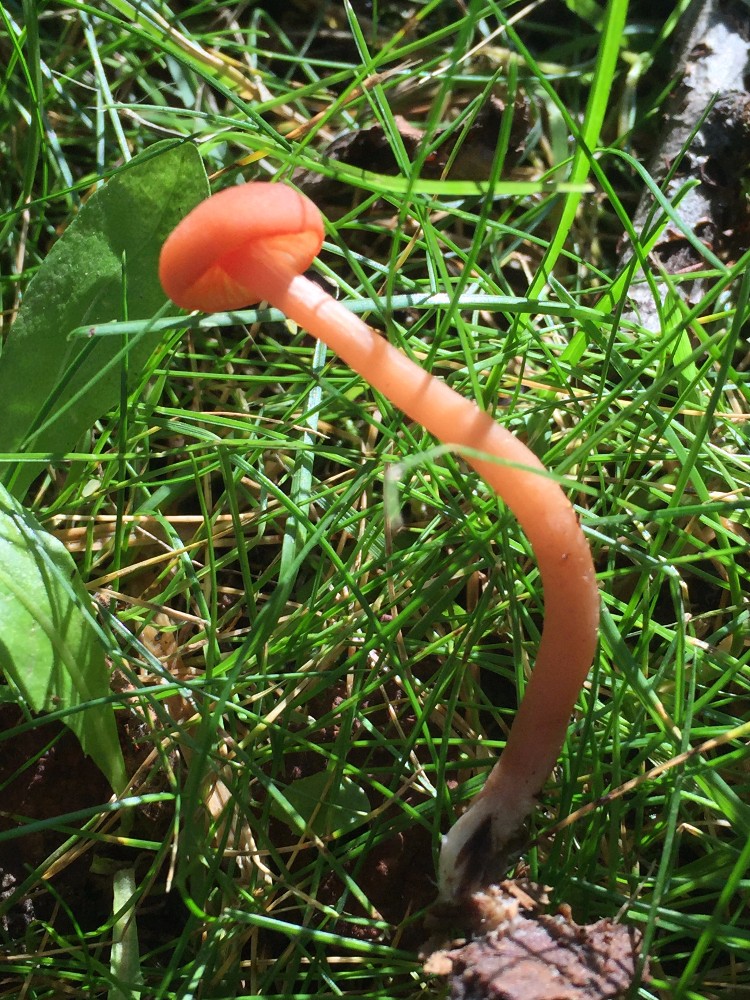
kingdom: Fungi
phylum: Basidiomycota
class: Agaricomycetes
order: Agaricales
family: Hydnangiaceae
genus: Laccaria
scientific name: Laccaria laccata
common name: rød ametysthat
